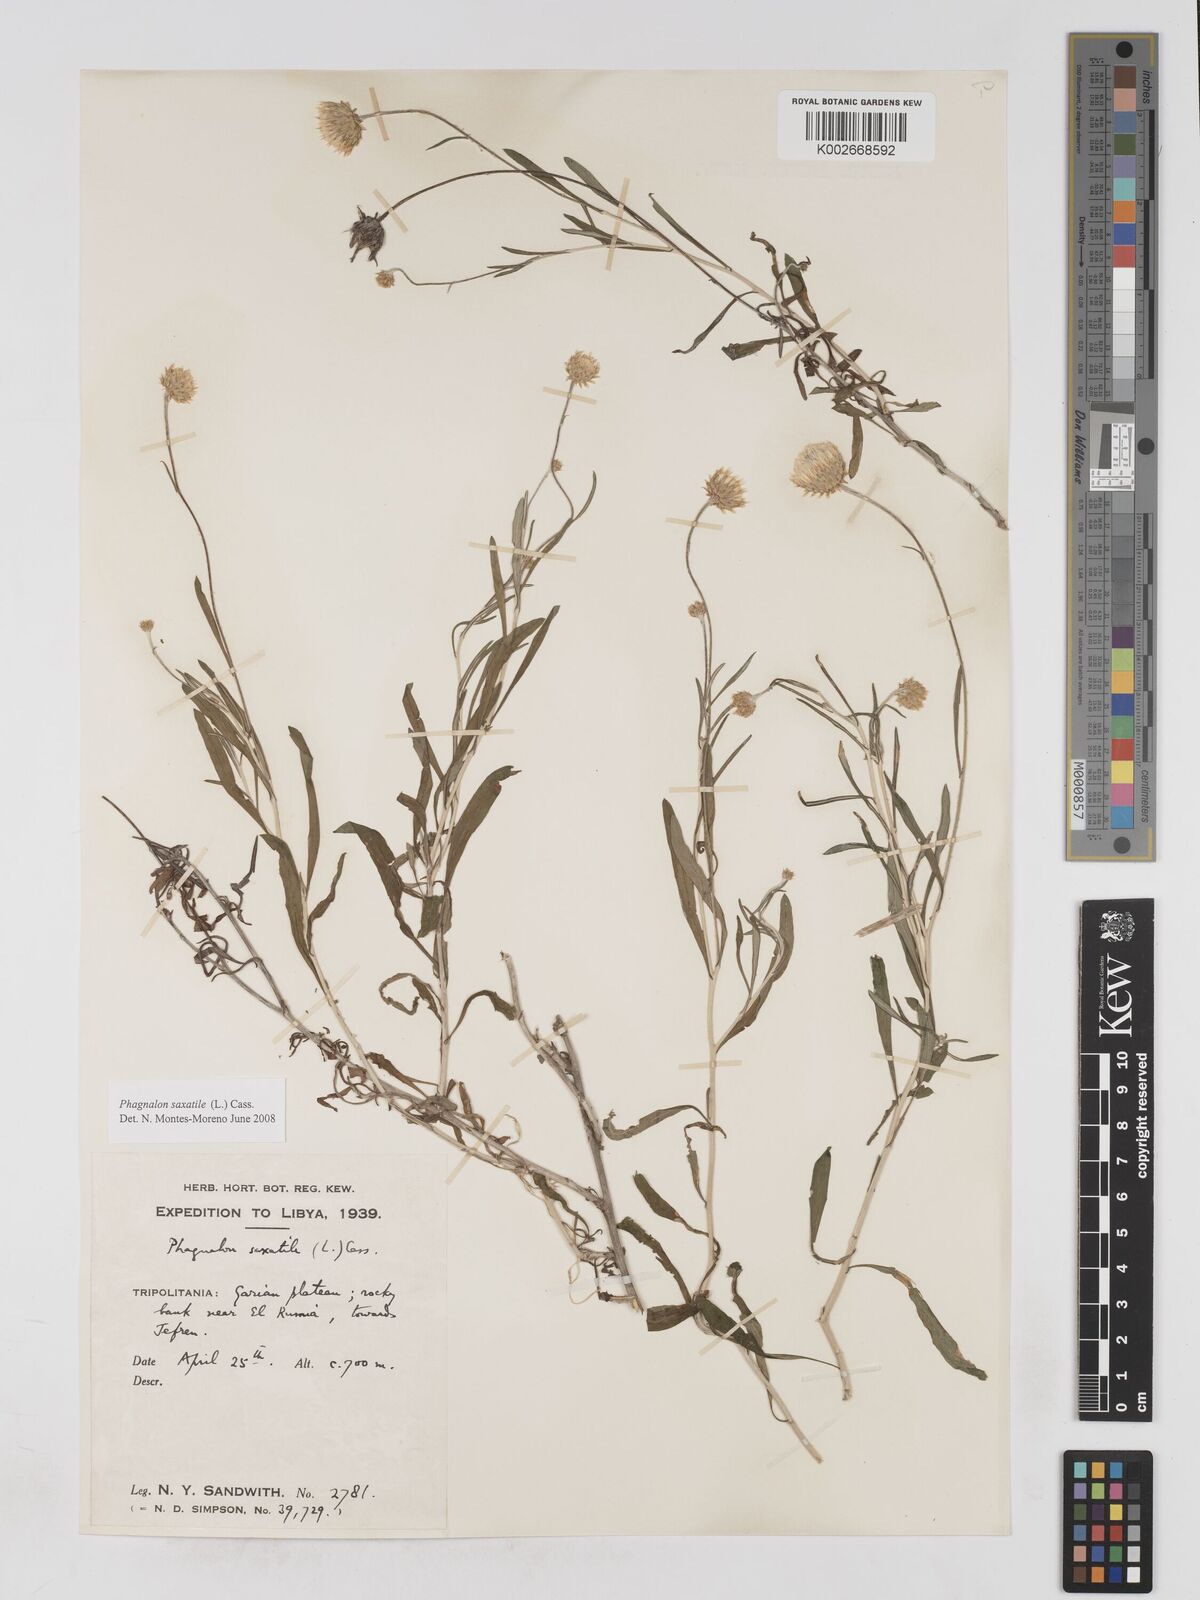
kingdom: Plantae
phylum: Tracheophyta
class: Magnoliopsida
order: Asterales
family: Asteraceae
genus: Phagnalon
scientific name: Phagnalon saxatile
